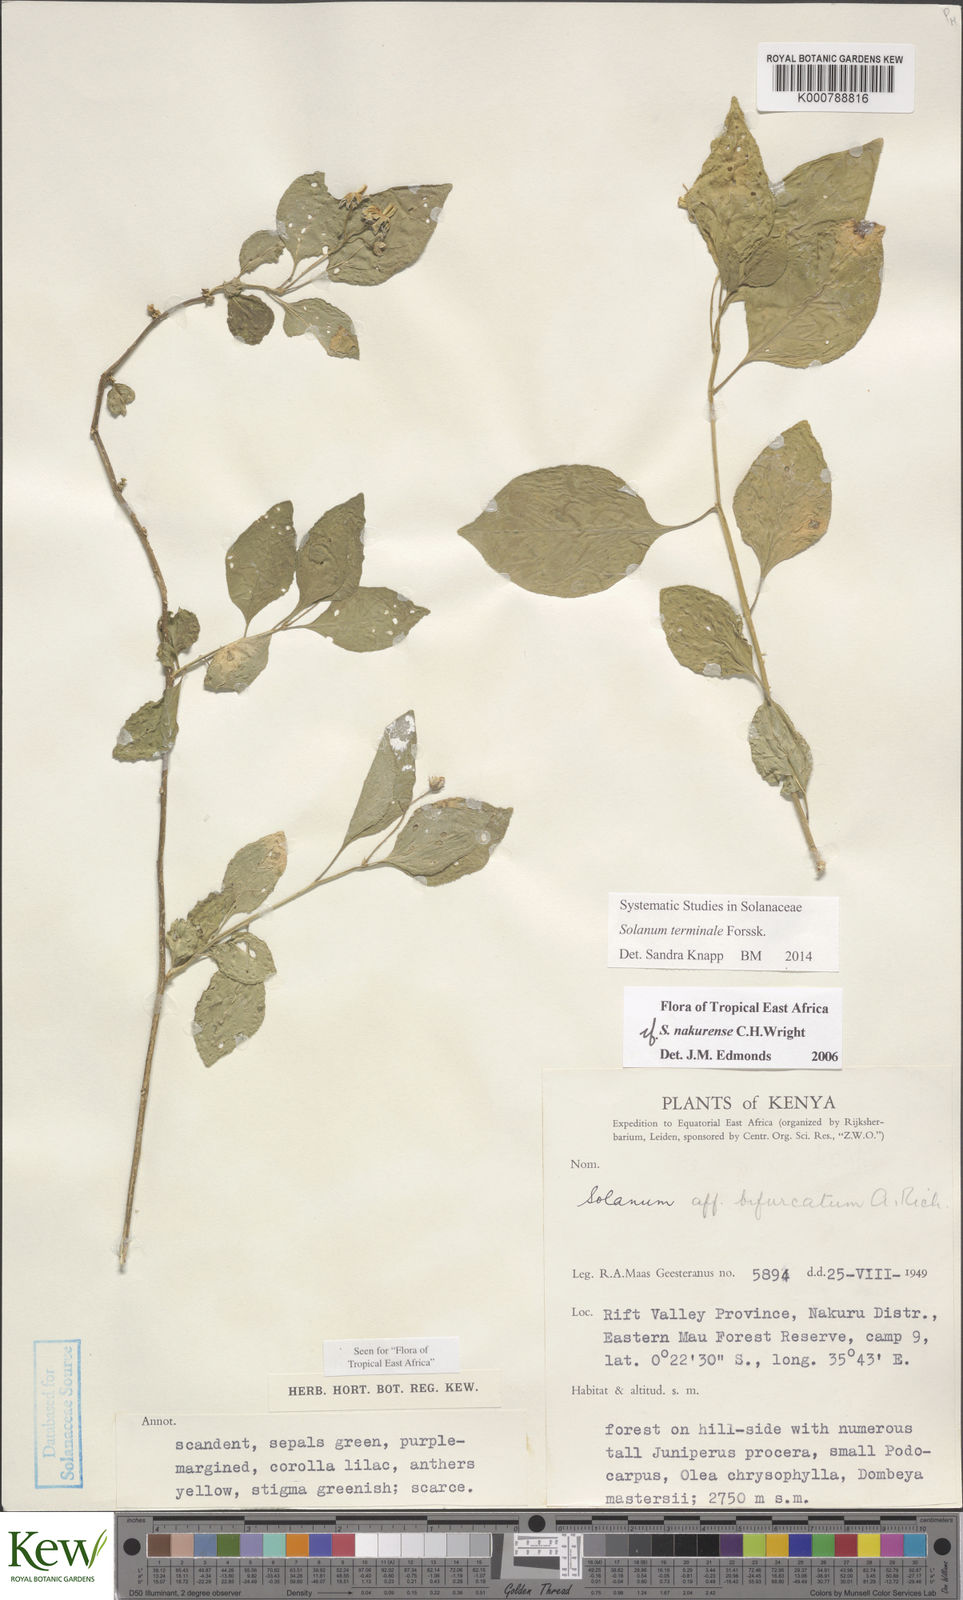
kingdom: Plantae
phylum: Tracheophyta
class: Magnoliopsida
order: Solanales
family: Solanaceae
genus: Solanum
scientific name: Solanum terminale
